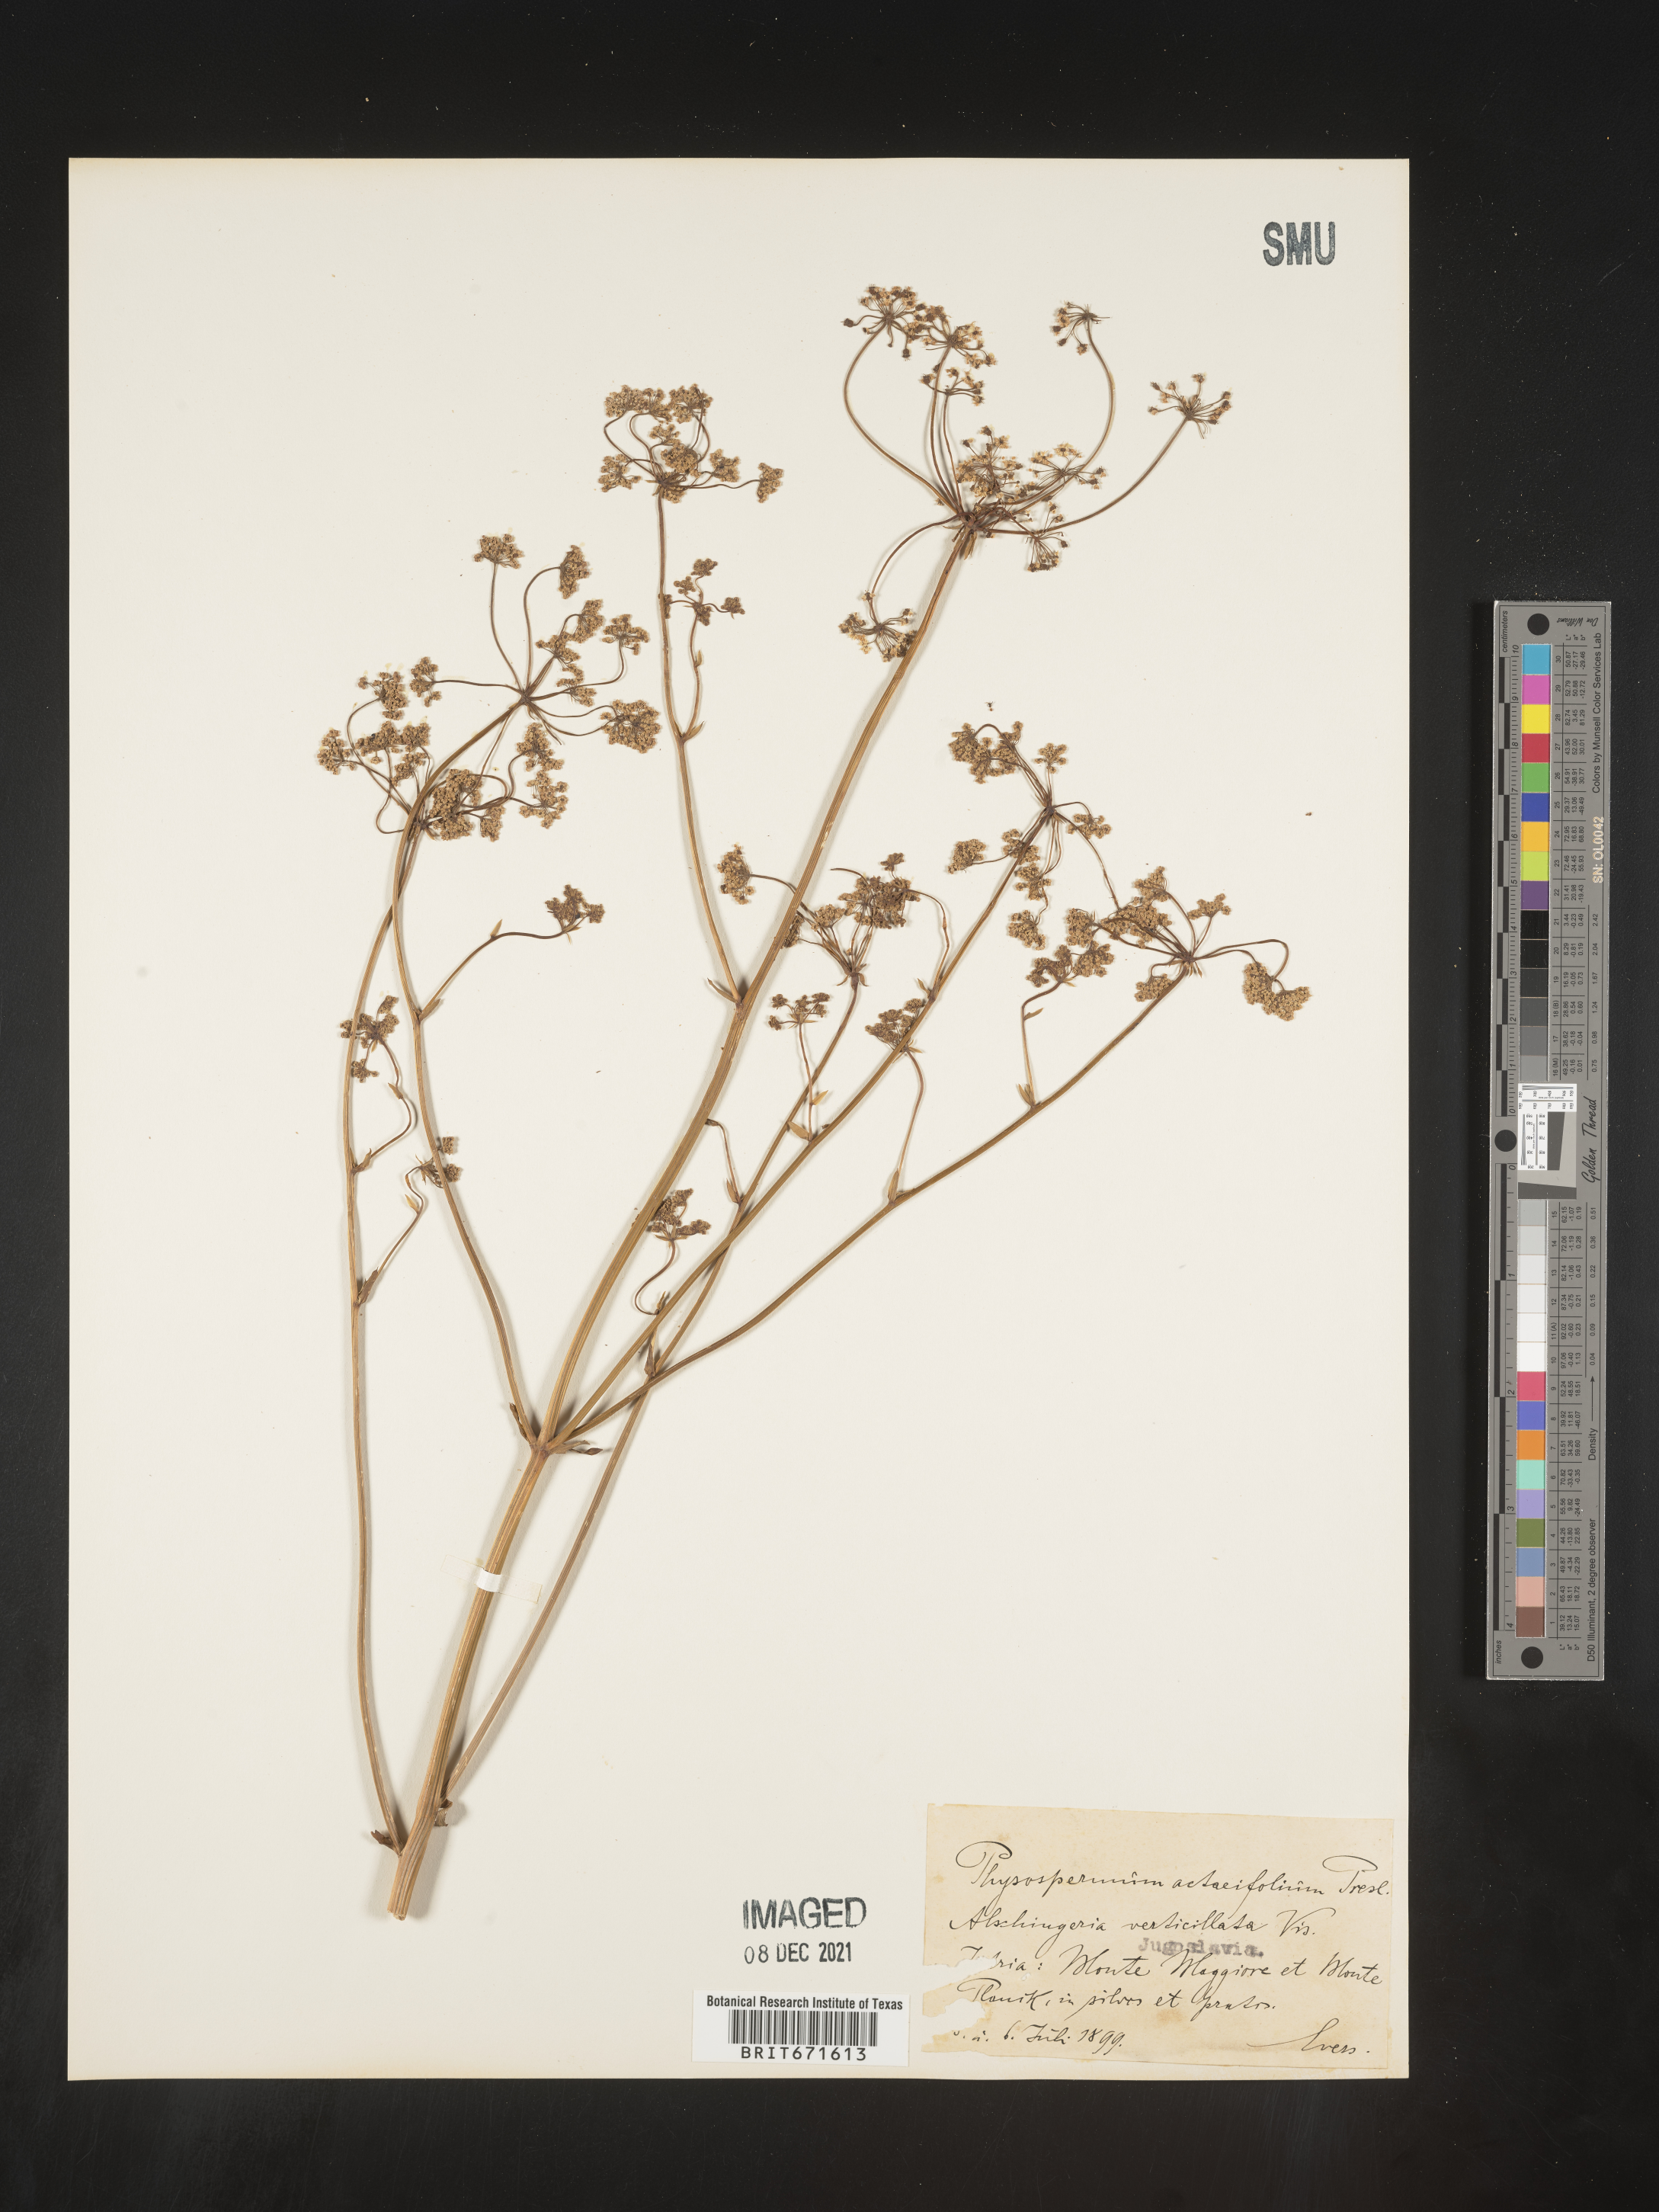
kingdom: Plantae
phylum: Tracheophyta
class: Magnoliopsida
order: Apiales
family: Apiaceae
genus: Physospermum
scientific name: Physospermum
